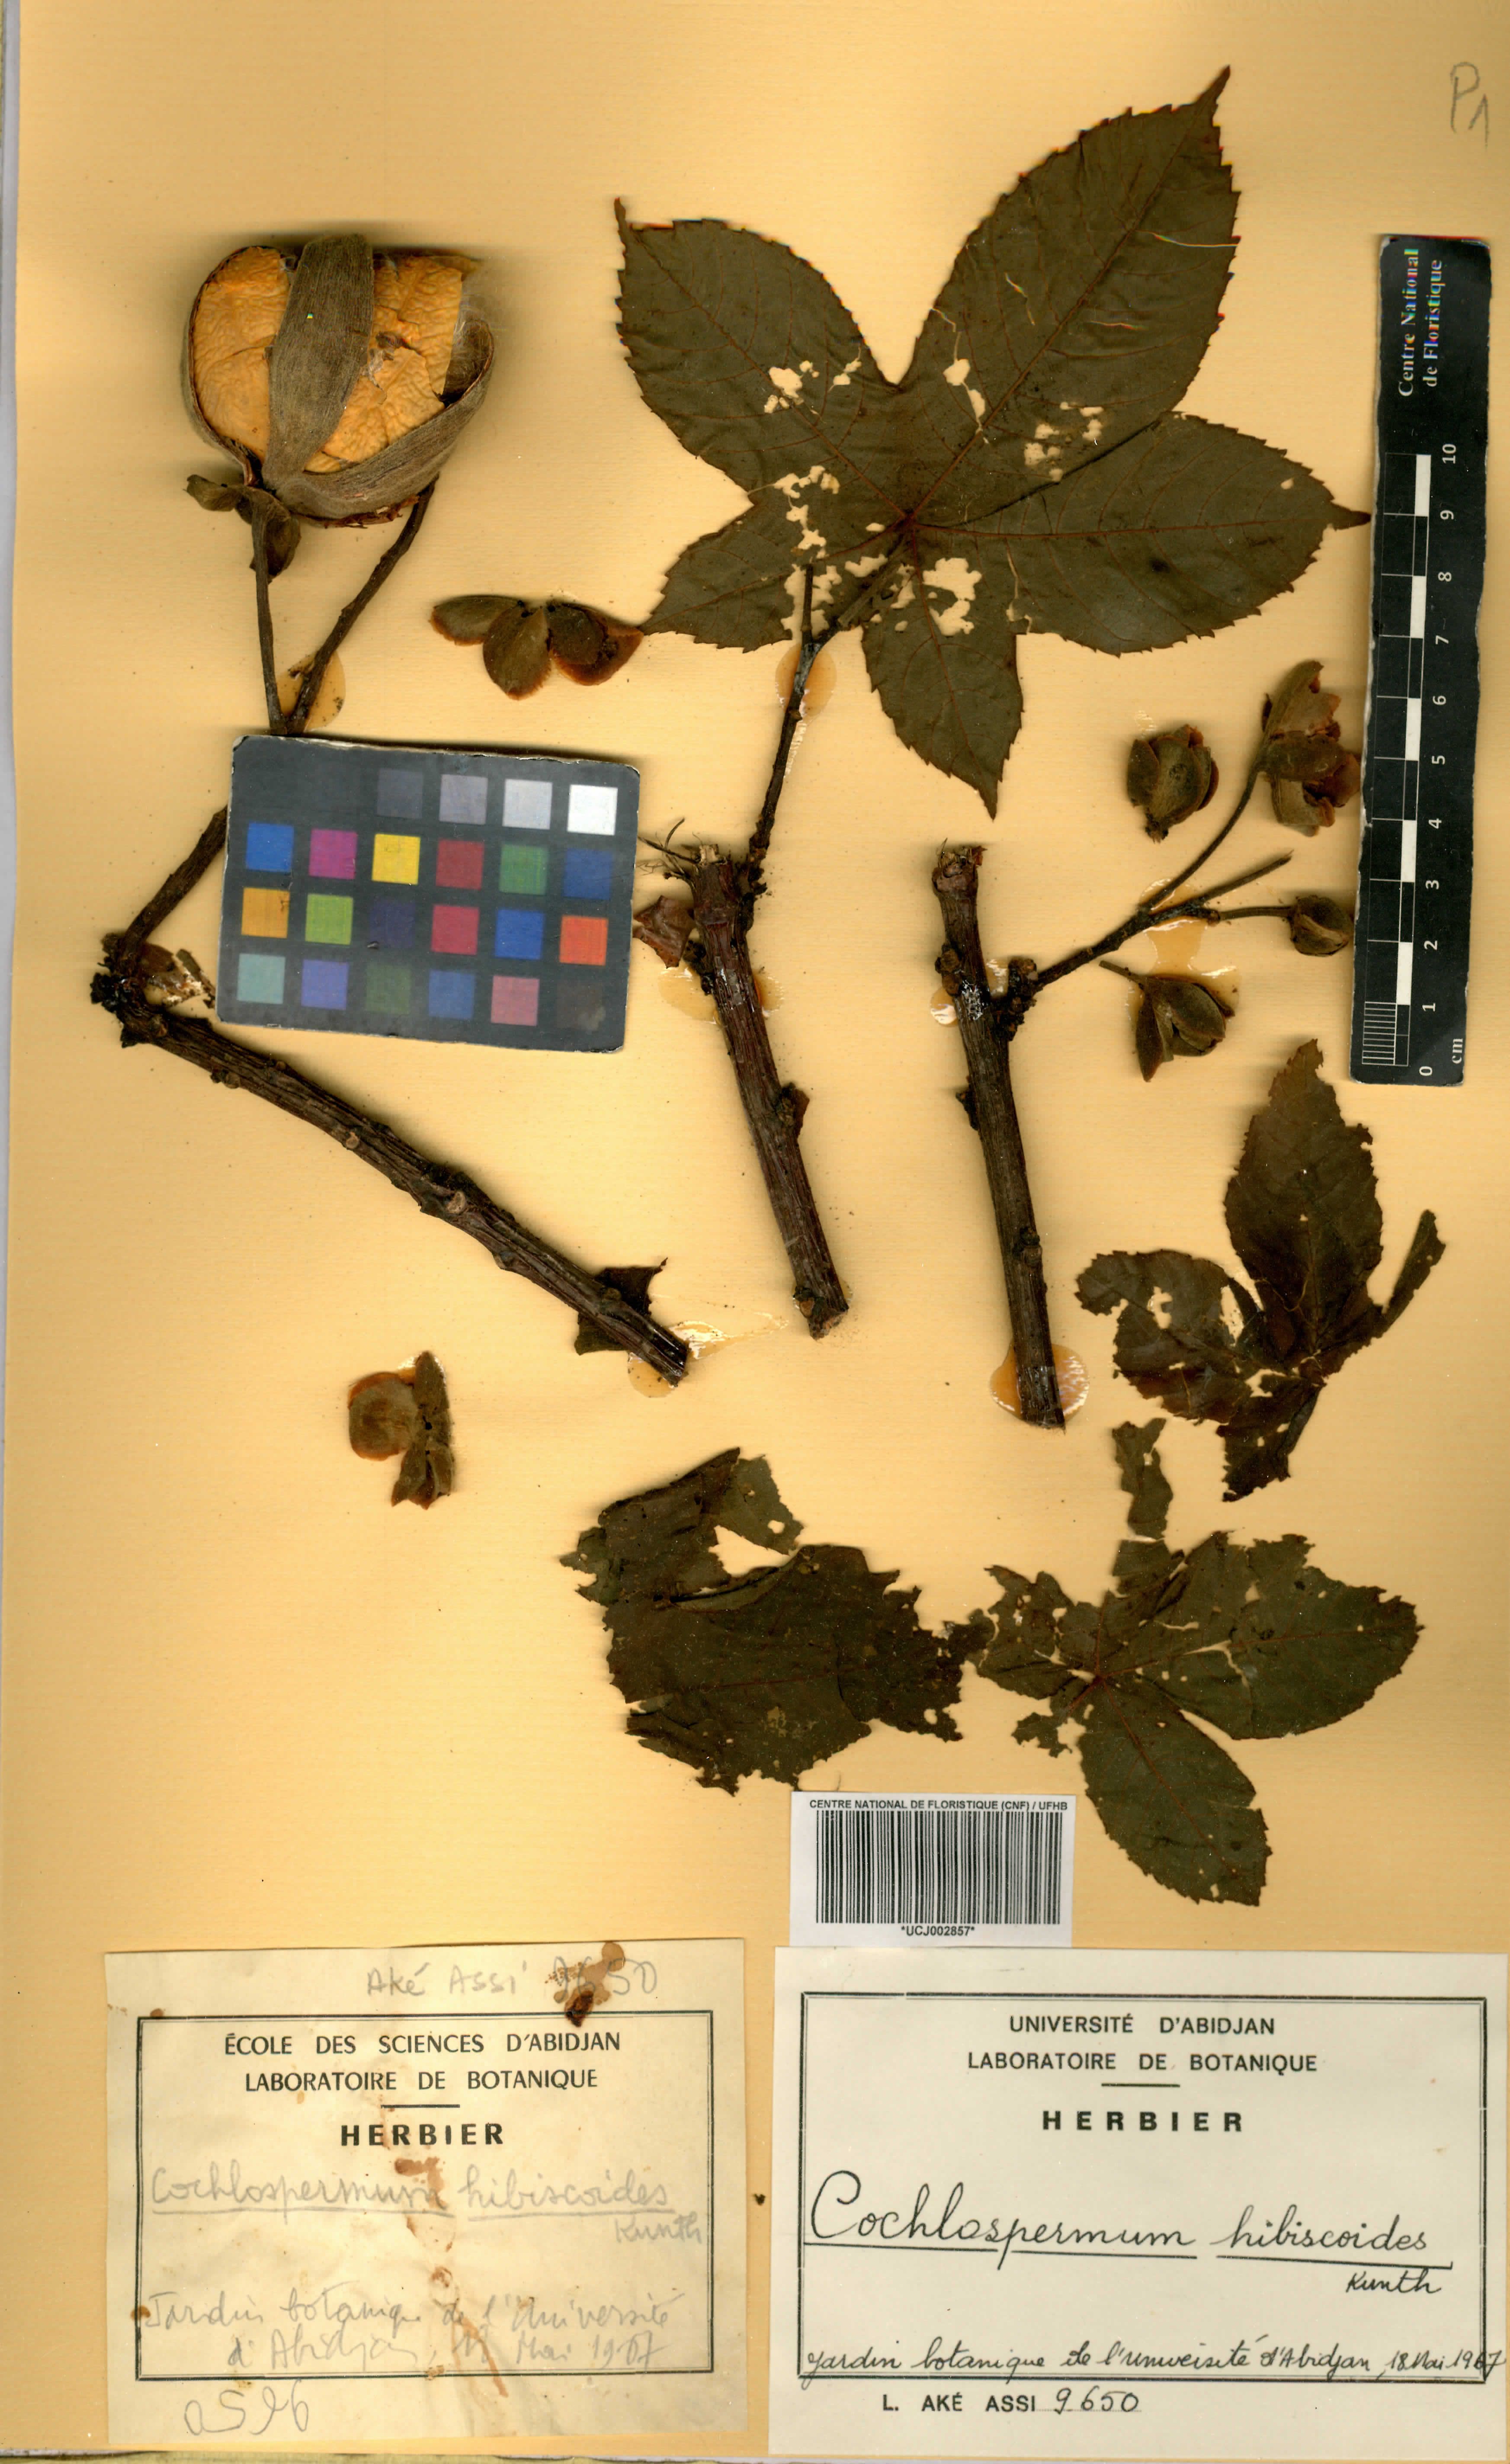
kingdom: Plantae
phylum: Tracheophyta
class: Magnoliopsida
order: Malvales
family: Cochlospermaceae
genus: Cochlospermum
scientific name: Cochlospermum vitifolium
